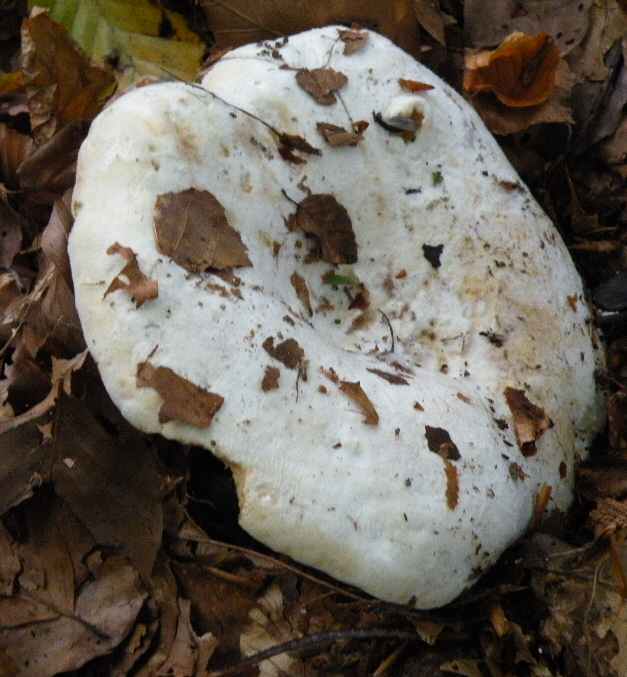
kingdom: Fungi
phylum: Basidiomycota
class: Agaricomycetes
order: Russulales
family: Russulaceae
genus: Lactifluus
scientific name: Lactifluus vellereus
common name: hvidfiltet mælkehat
